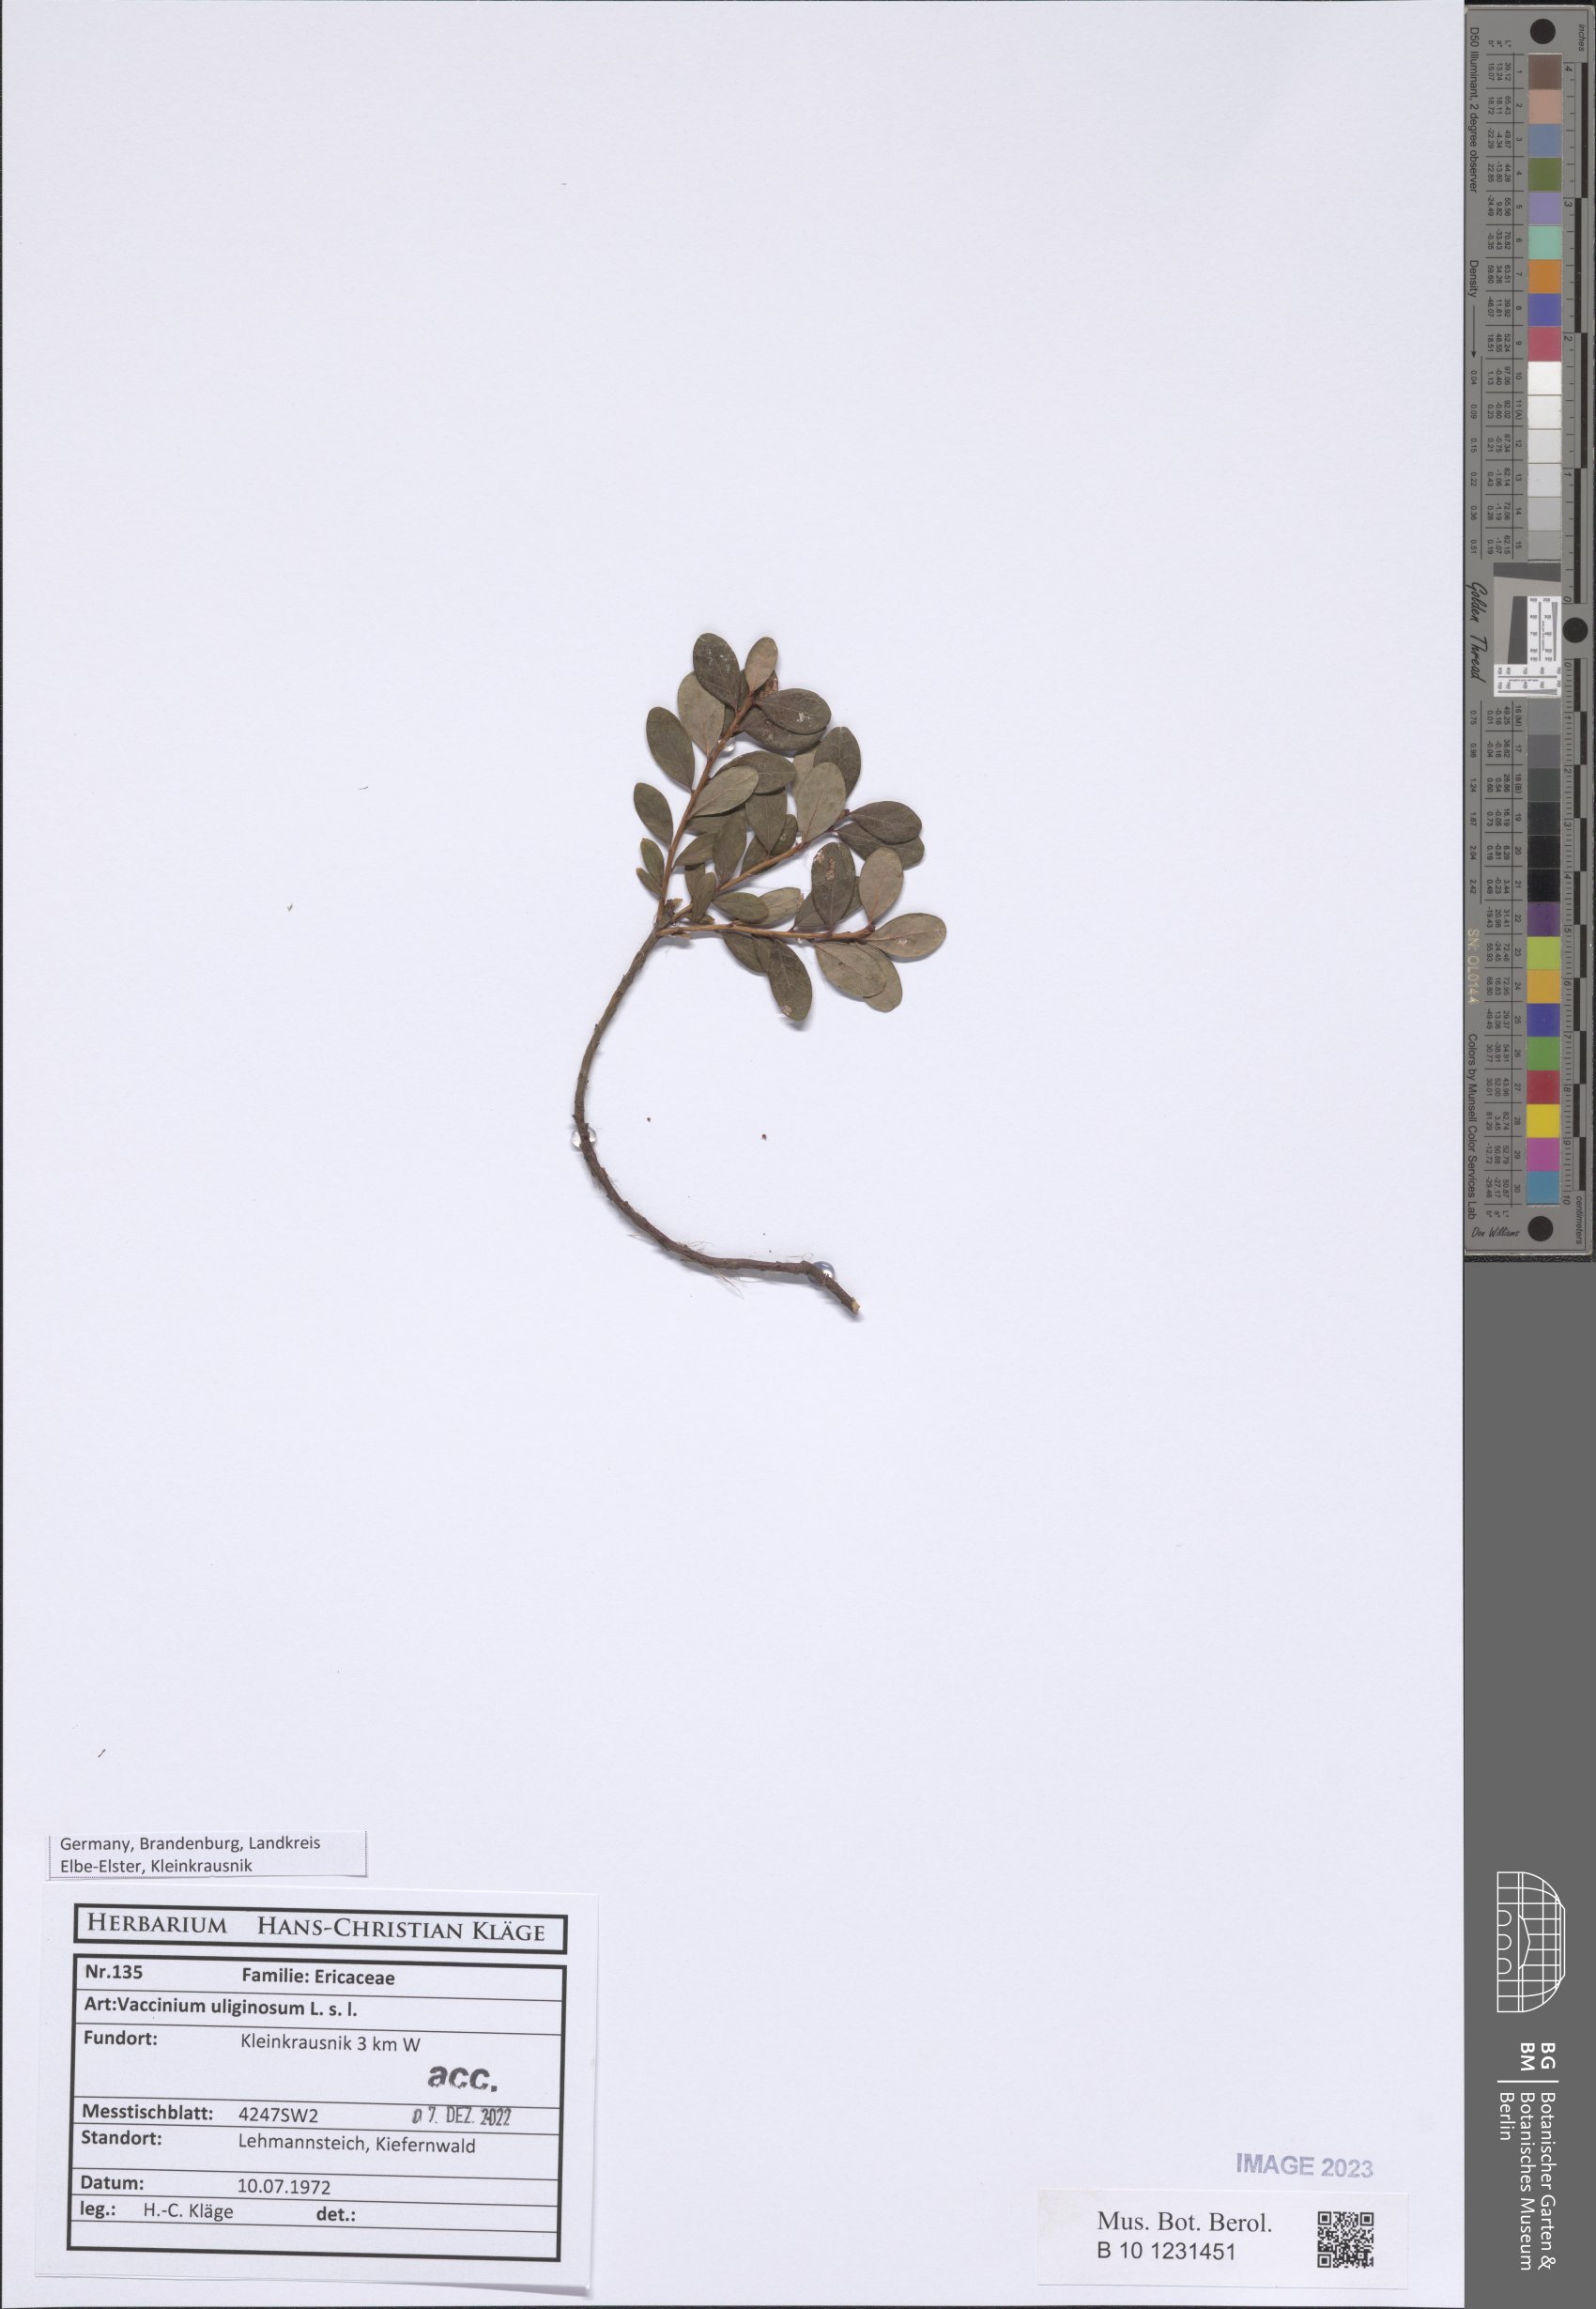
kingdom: Plantae
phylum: Tracheophyta
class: Magnoliopsida
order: Ericales
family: Ericaceae
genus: Vaccinium
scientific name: Vaccinium uliginosum
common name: Bog bilberry
